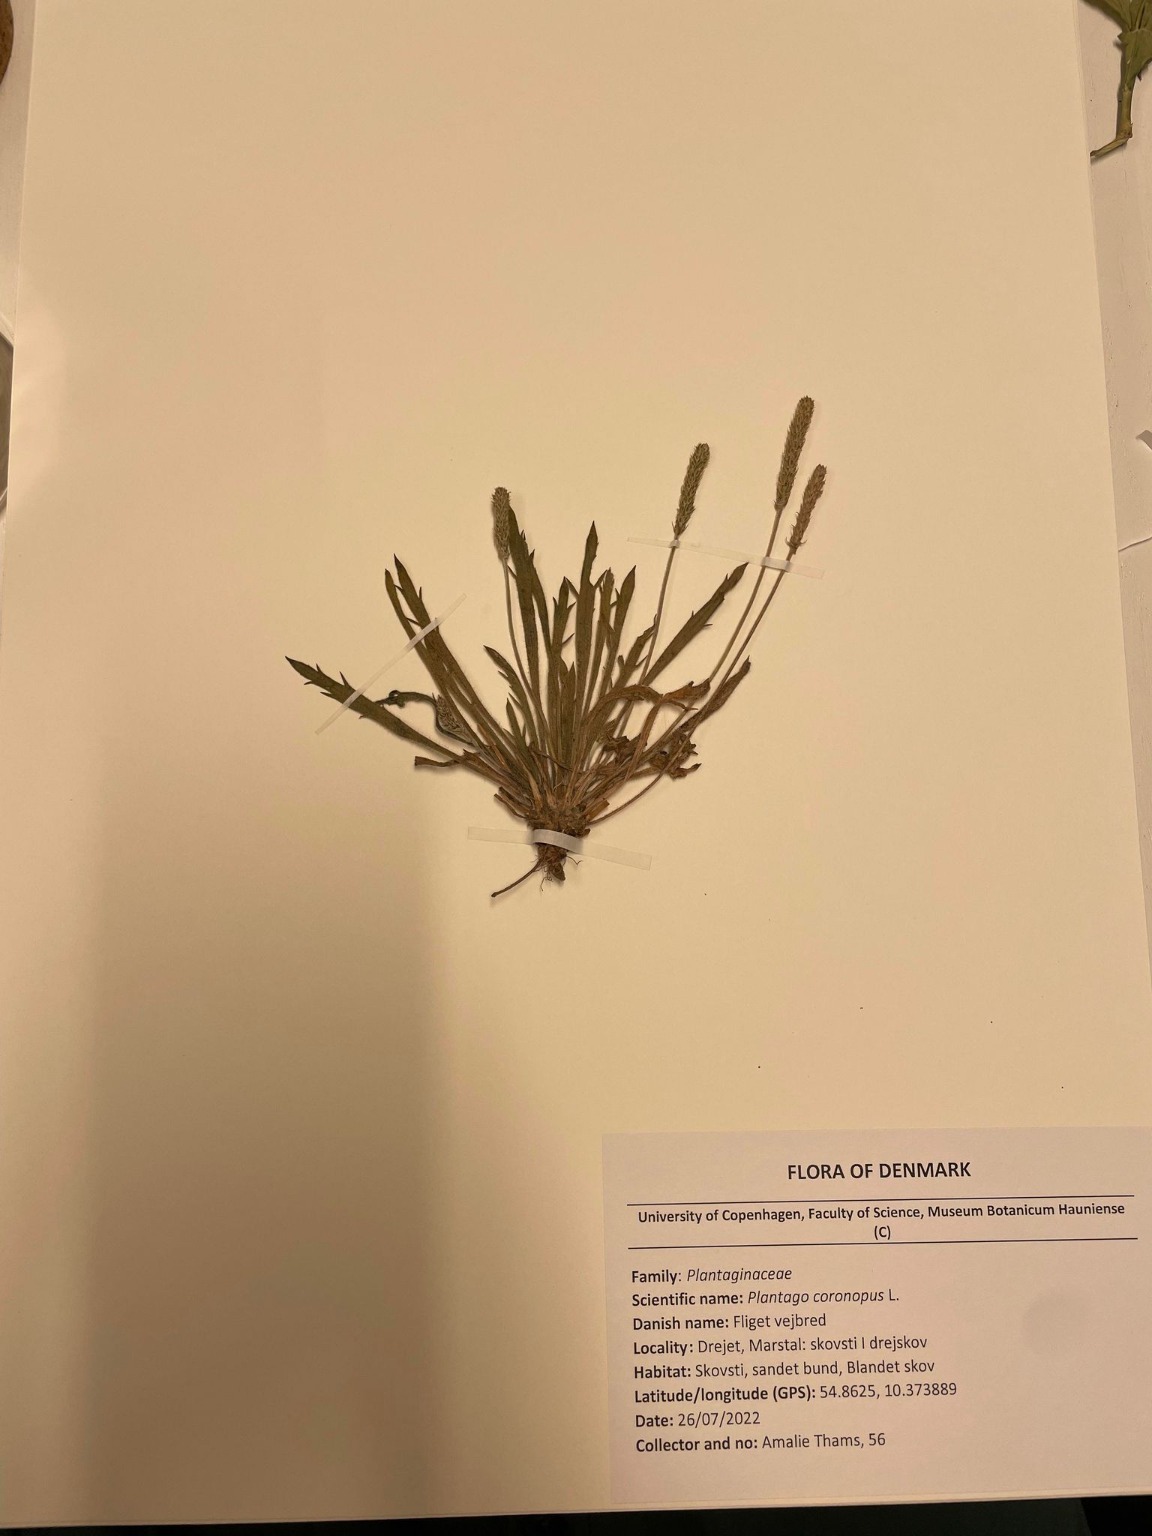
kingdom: Plantae
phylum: Tracheophyta
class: Magnoliopsida
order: Lamiales
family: Plantaginaceae
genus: Plantago
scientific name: Plantago coronopus
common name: Fliget vejbred
